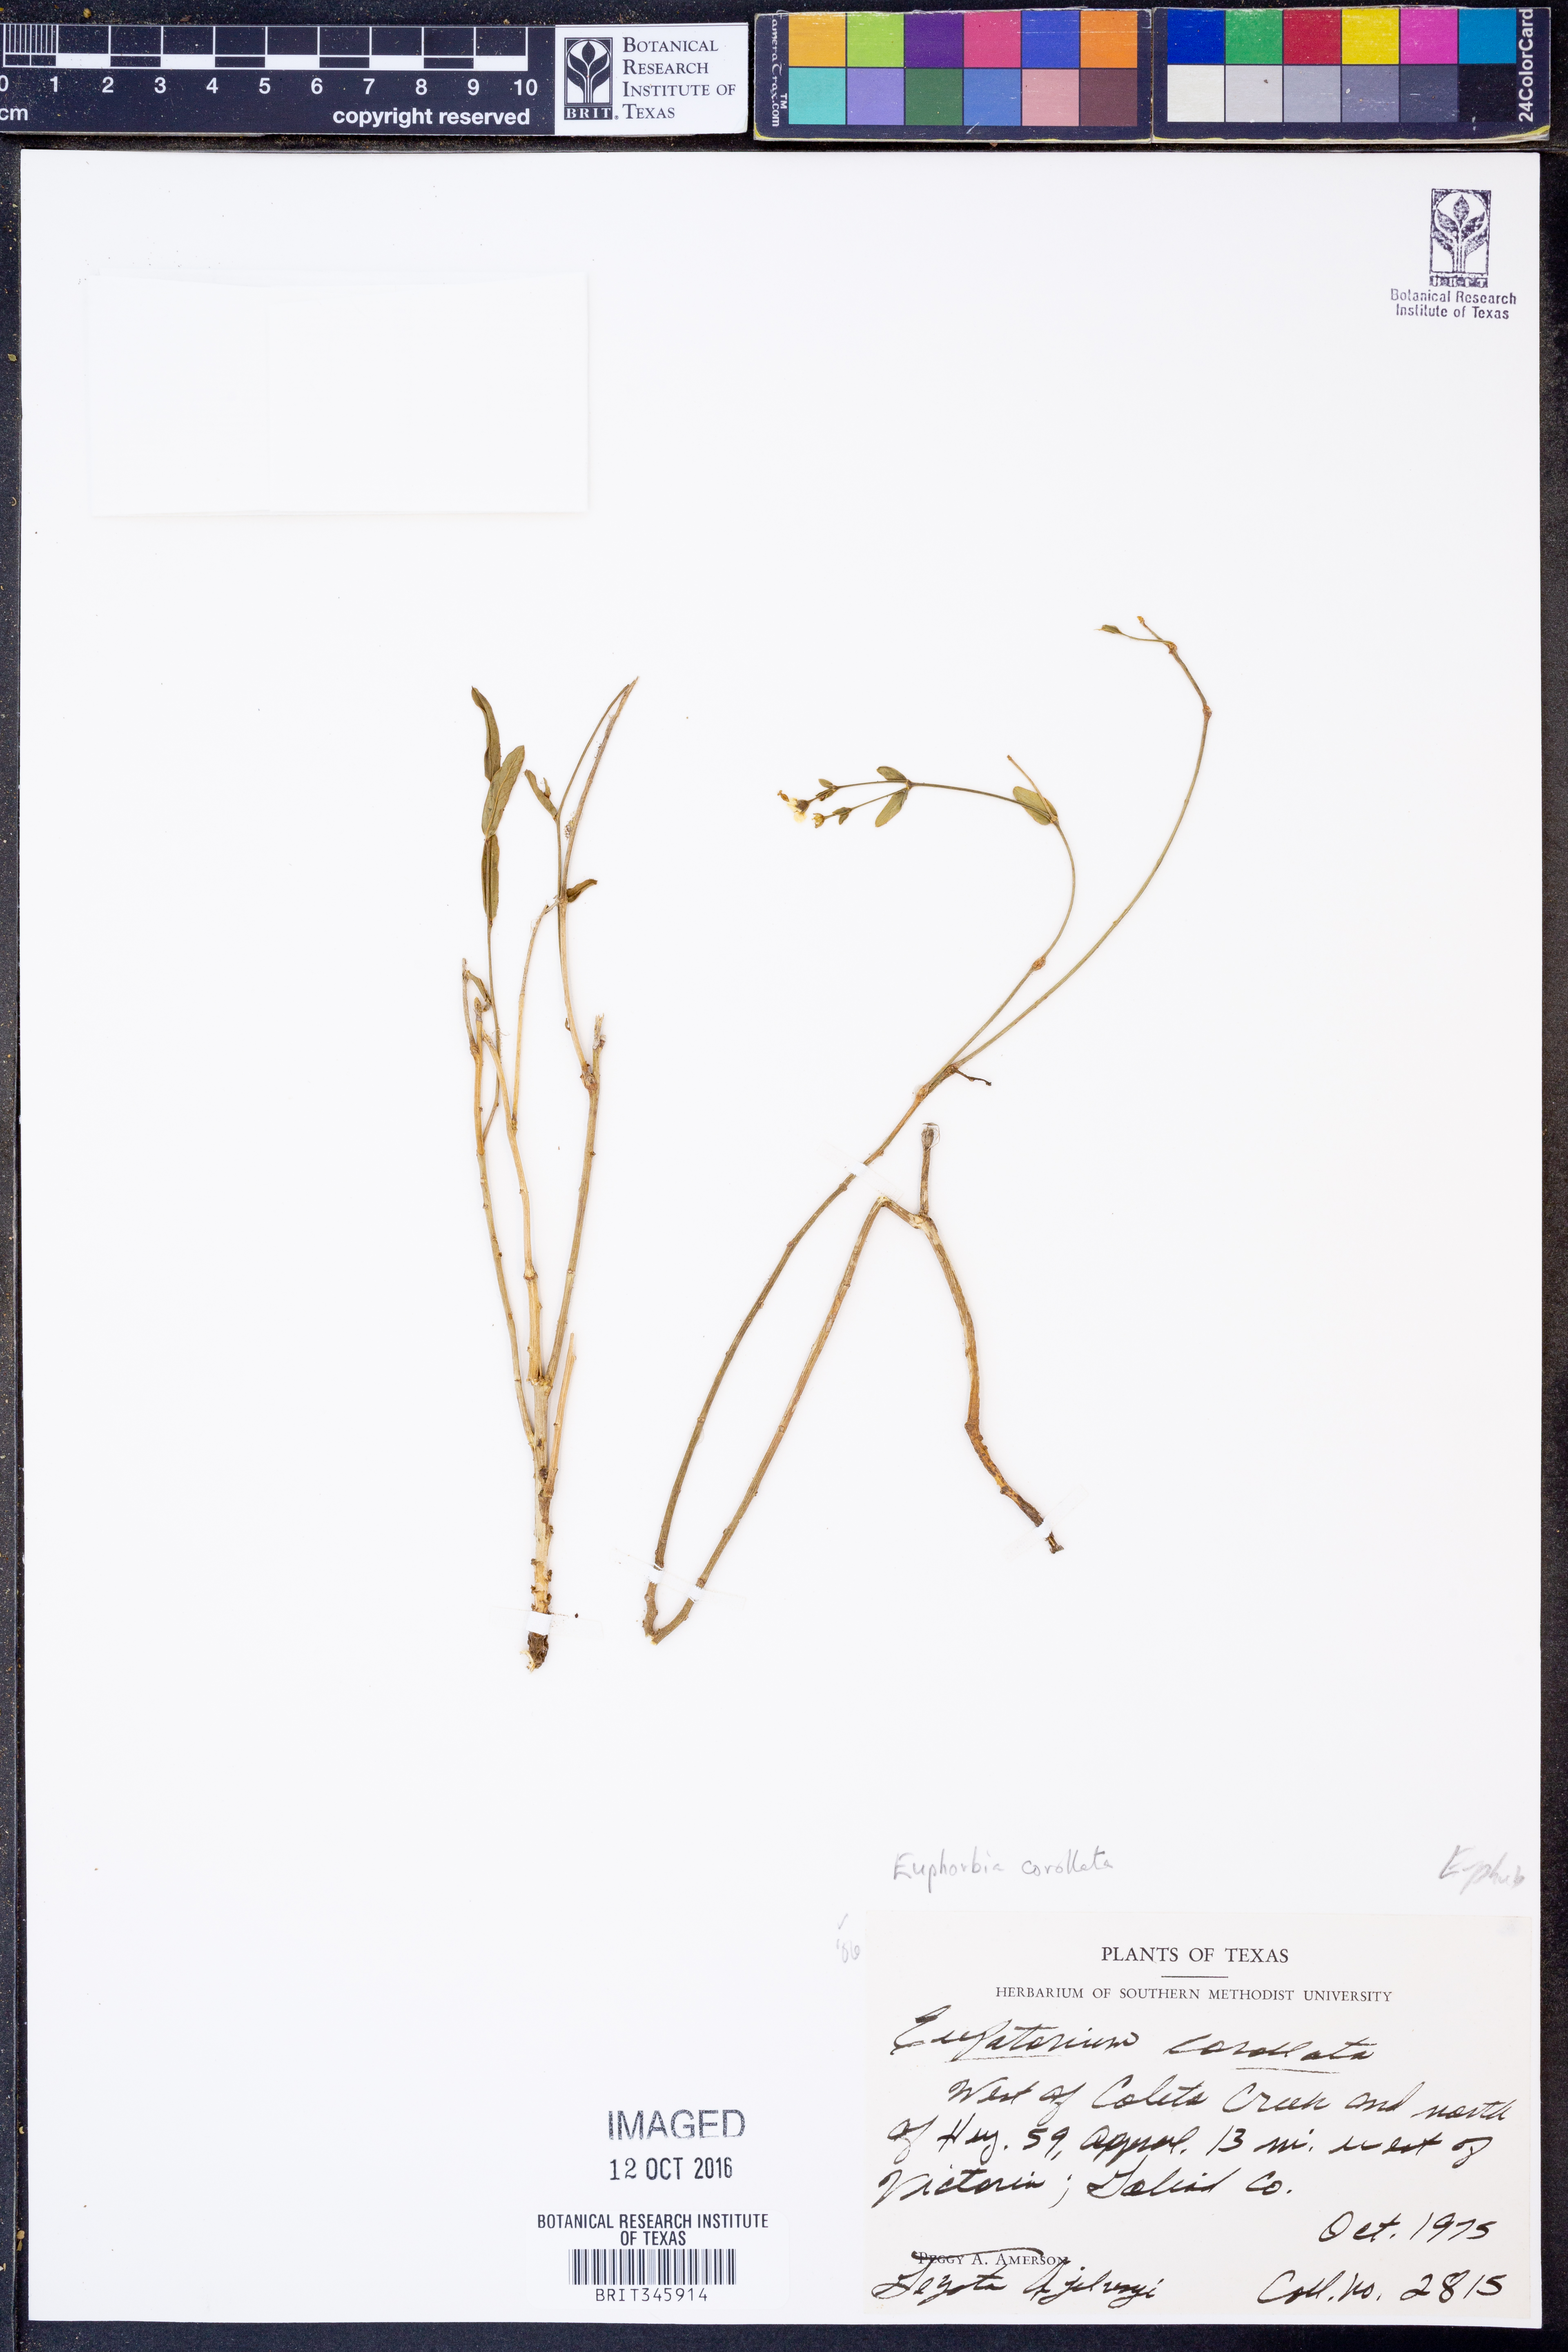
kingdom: Plantae
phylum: Tracheophyta
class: Magnoliopsida
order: Malpighiales
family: Euphorbiaceae
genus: Euphorbia
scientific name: Euphorbia corollata
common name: Flowering spurge
